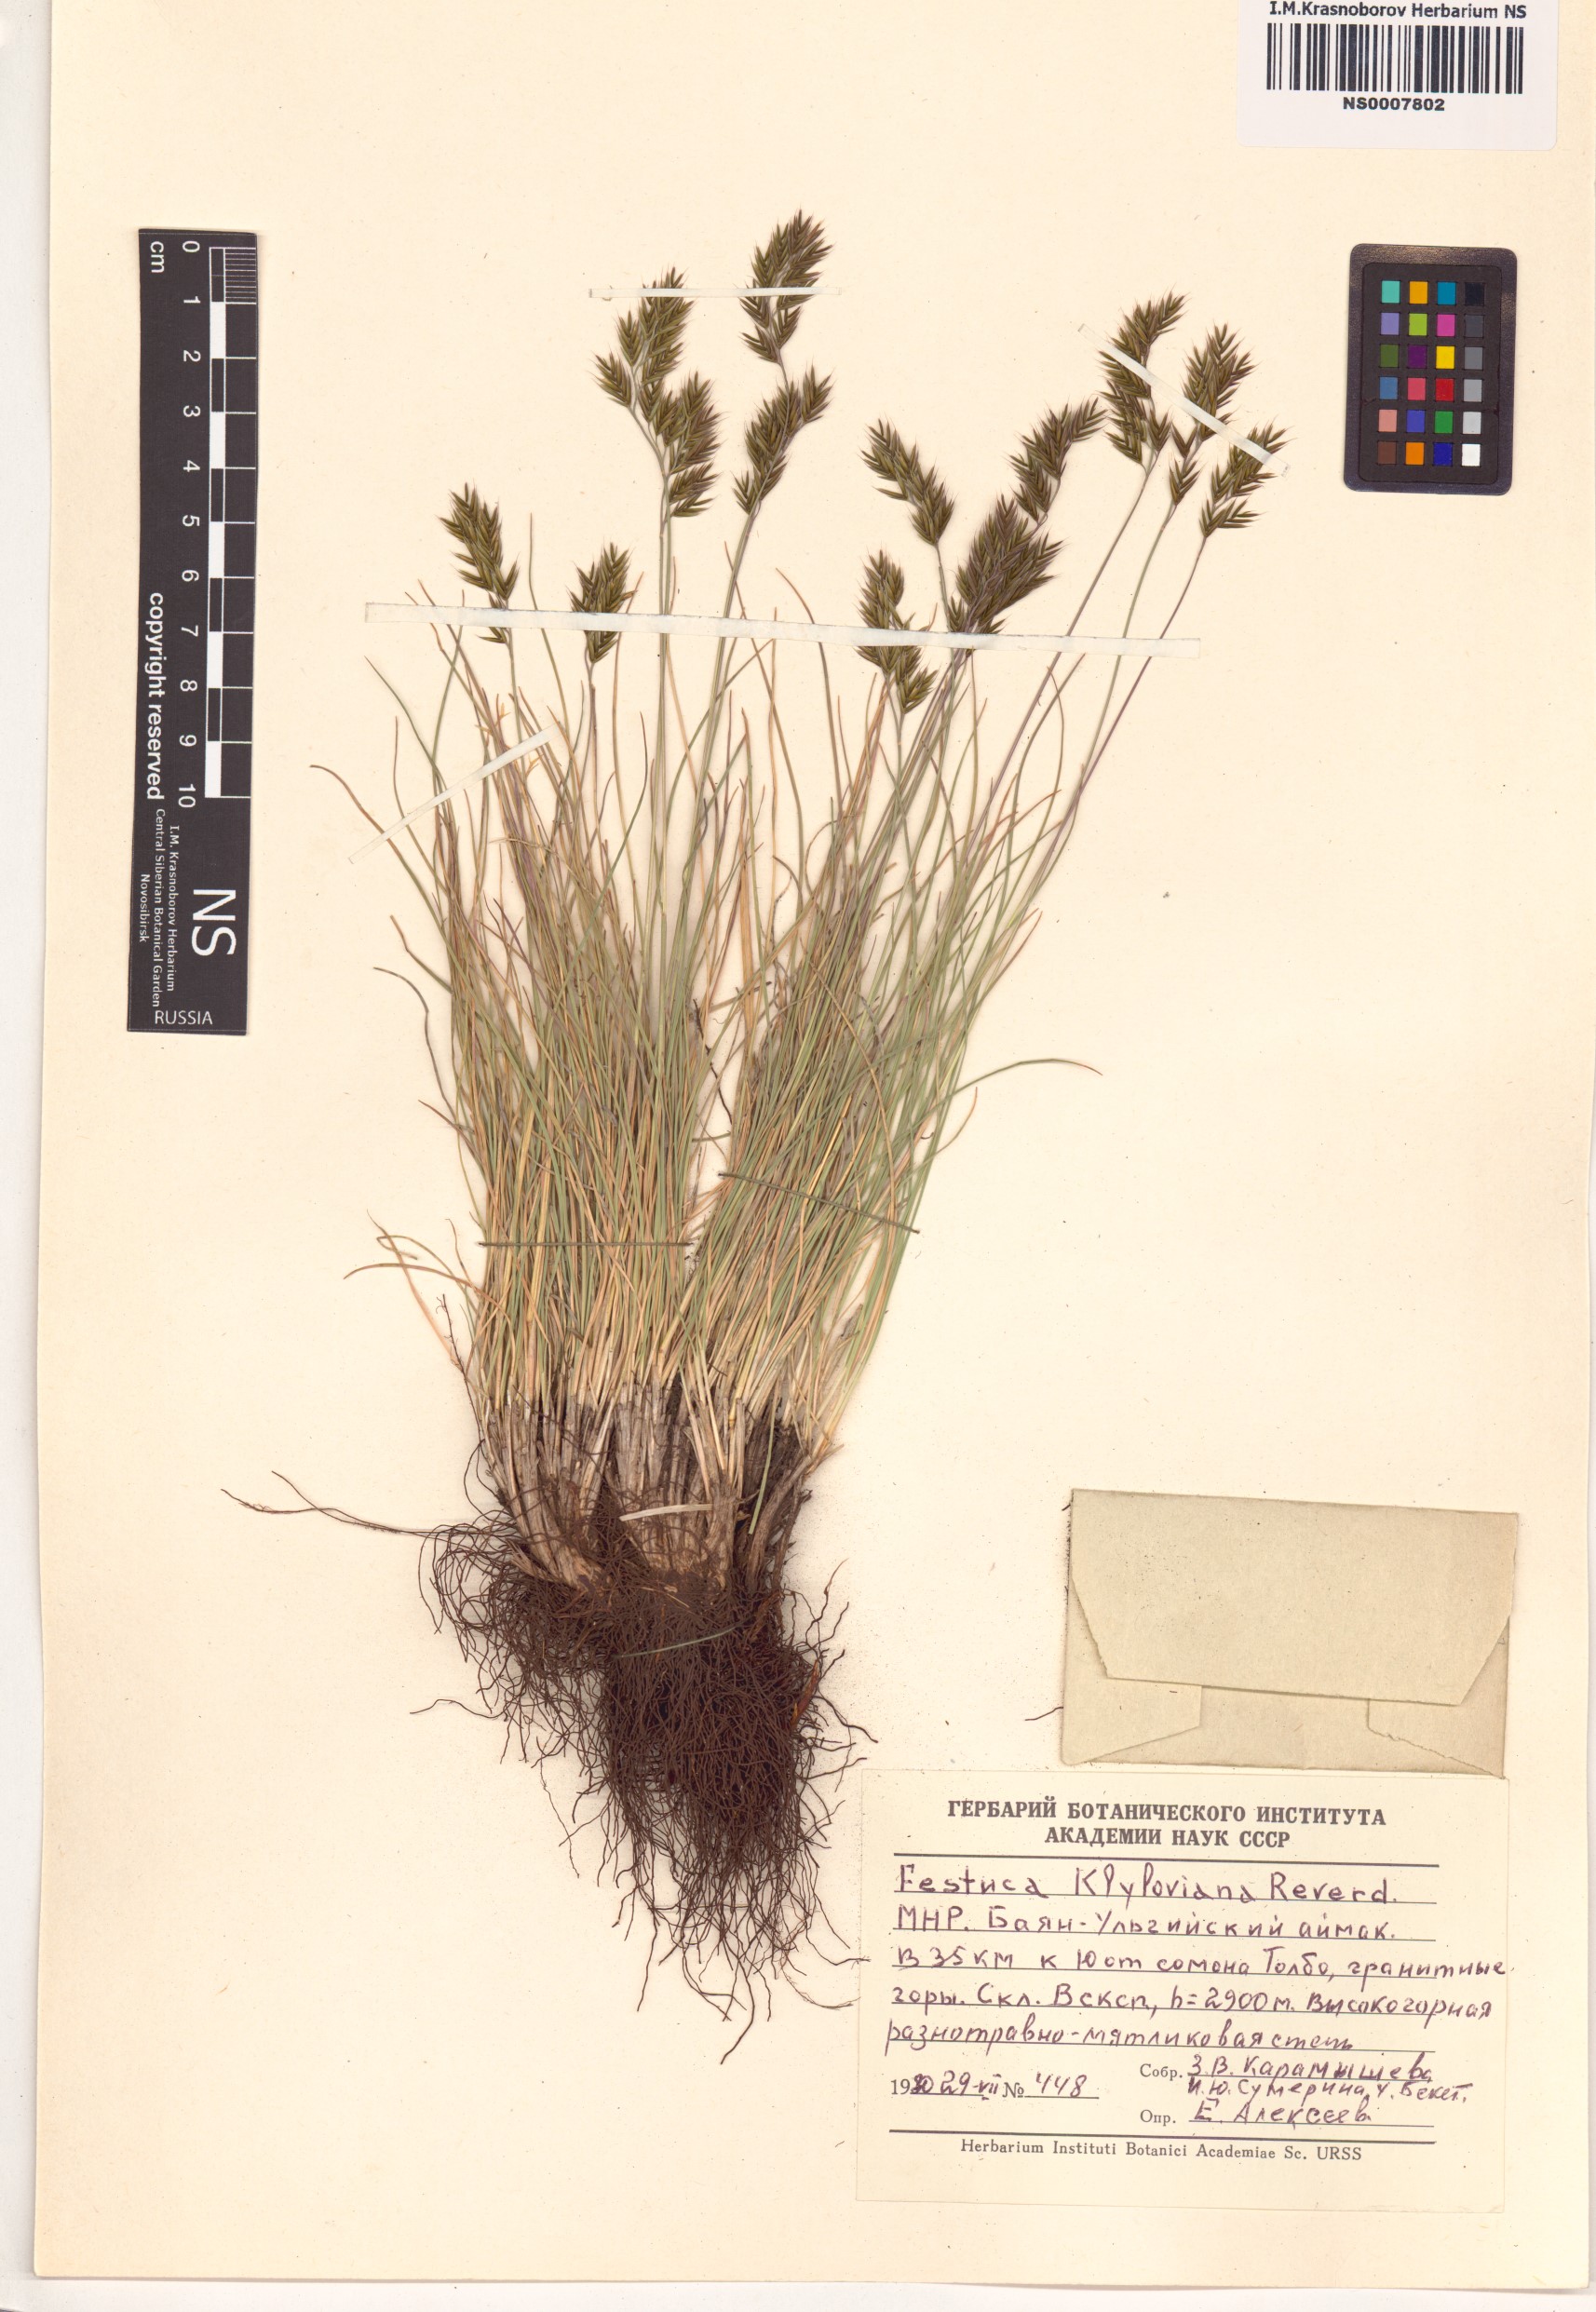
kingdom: Plantae
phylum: Tracheophyta
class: Liliopsida
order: Poales
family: Poaceae
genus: Festuca
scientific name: Festuca kryloviana
